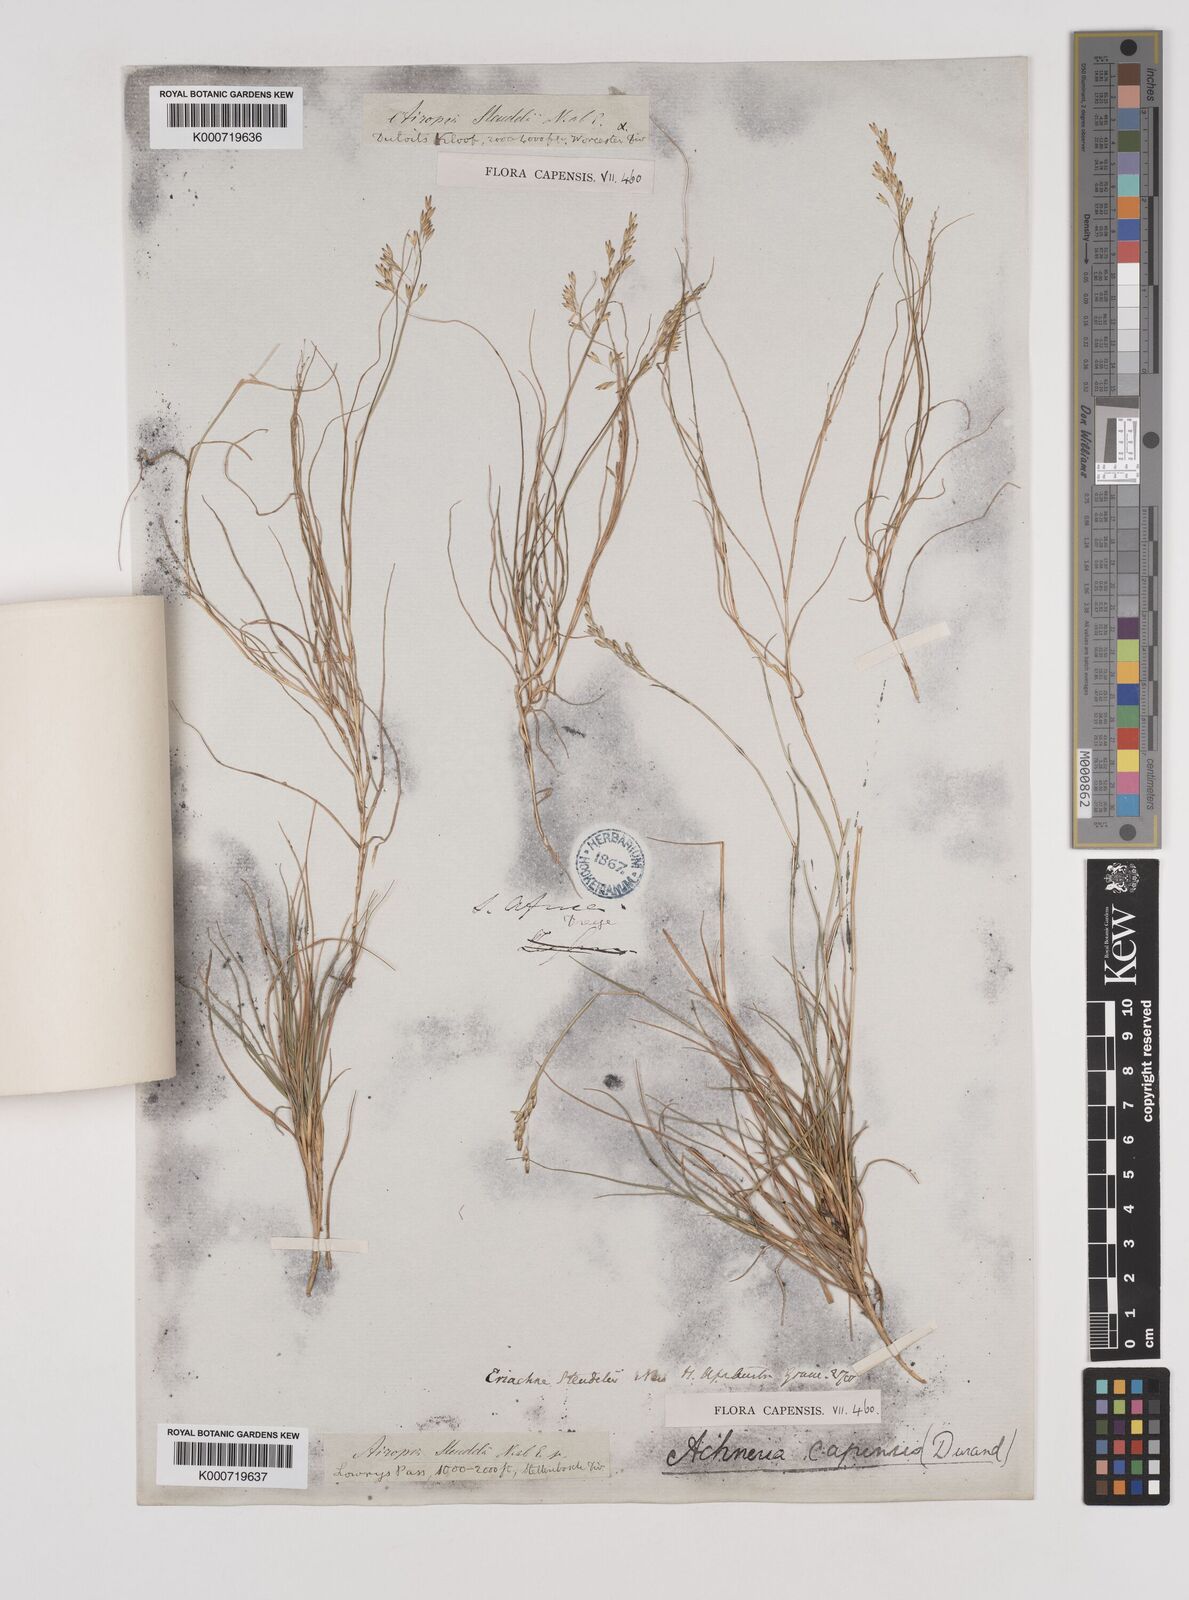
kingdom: Plantae
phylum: Tracheophyta
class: Liliopsida
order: Poales
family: Poaceae
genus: Pentameris
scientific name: Pentameris malouinensis
